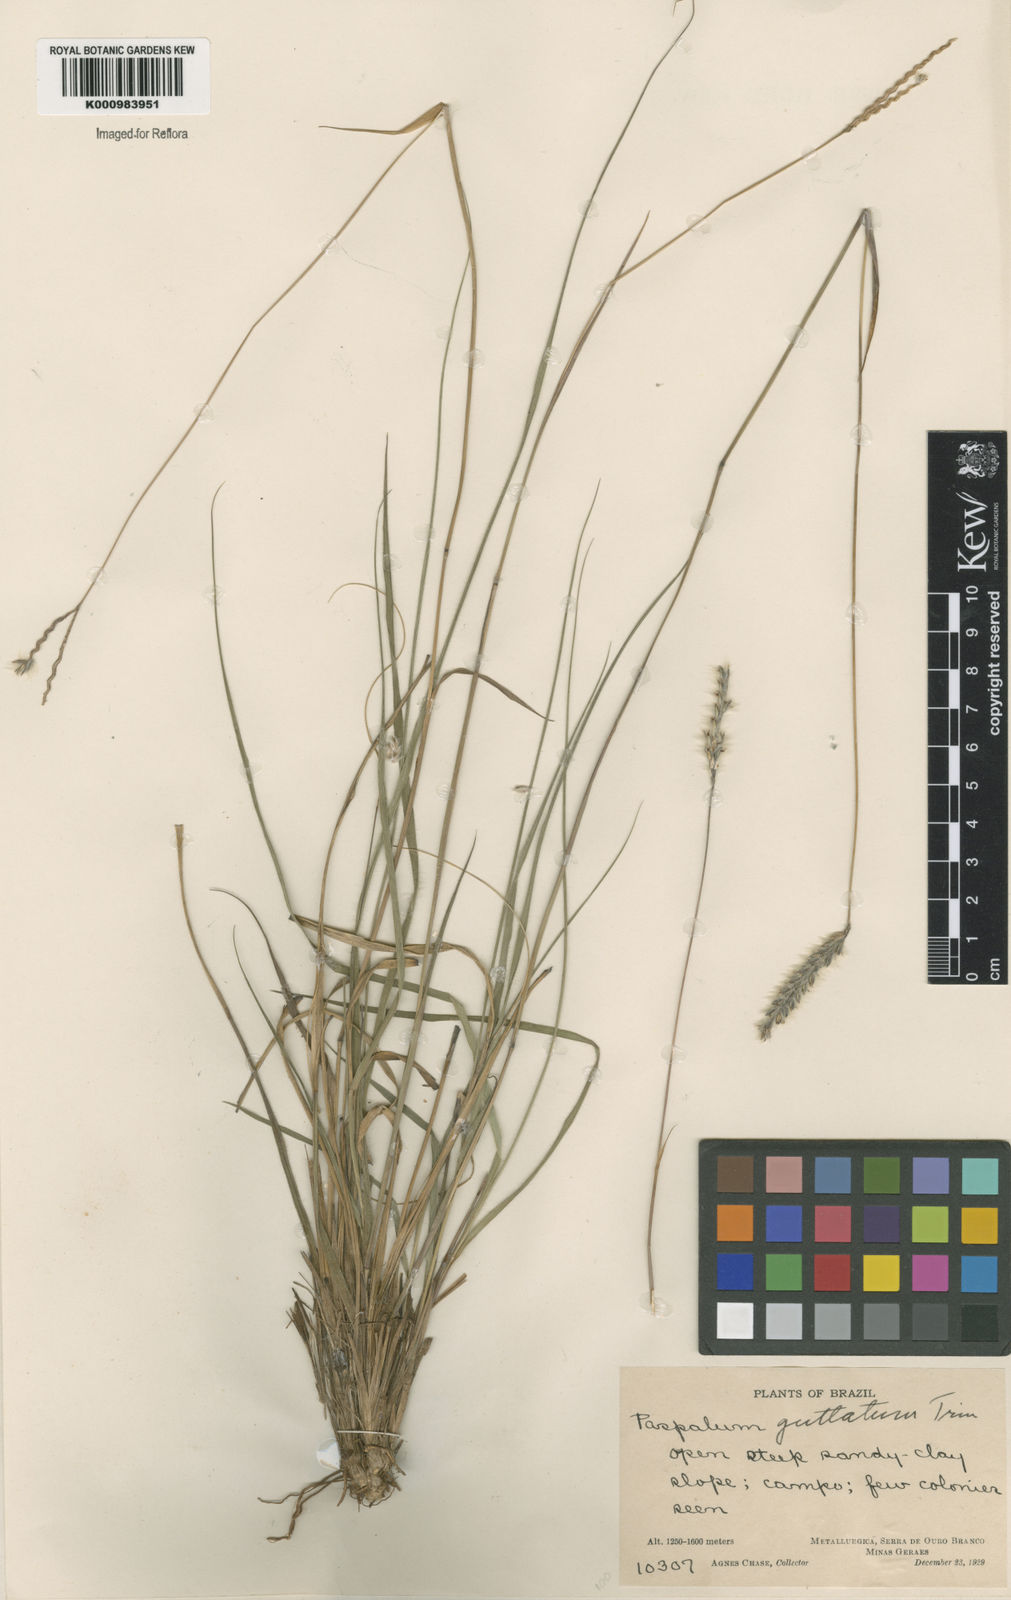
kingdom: Plantae
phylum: Tracheophyta
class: Liliopsida
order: Poales
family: Poaceae
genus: Paspalum
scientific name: Paspalum guttatum
